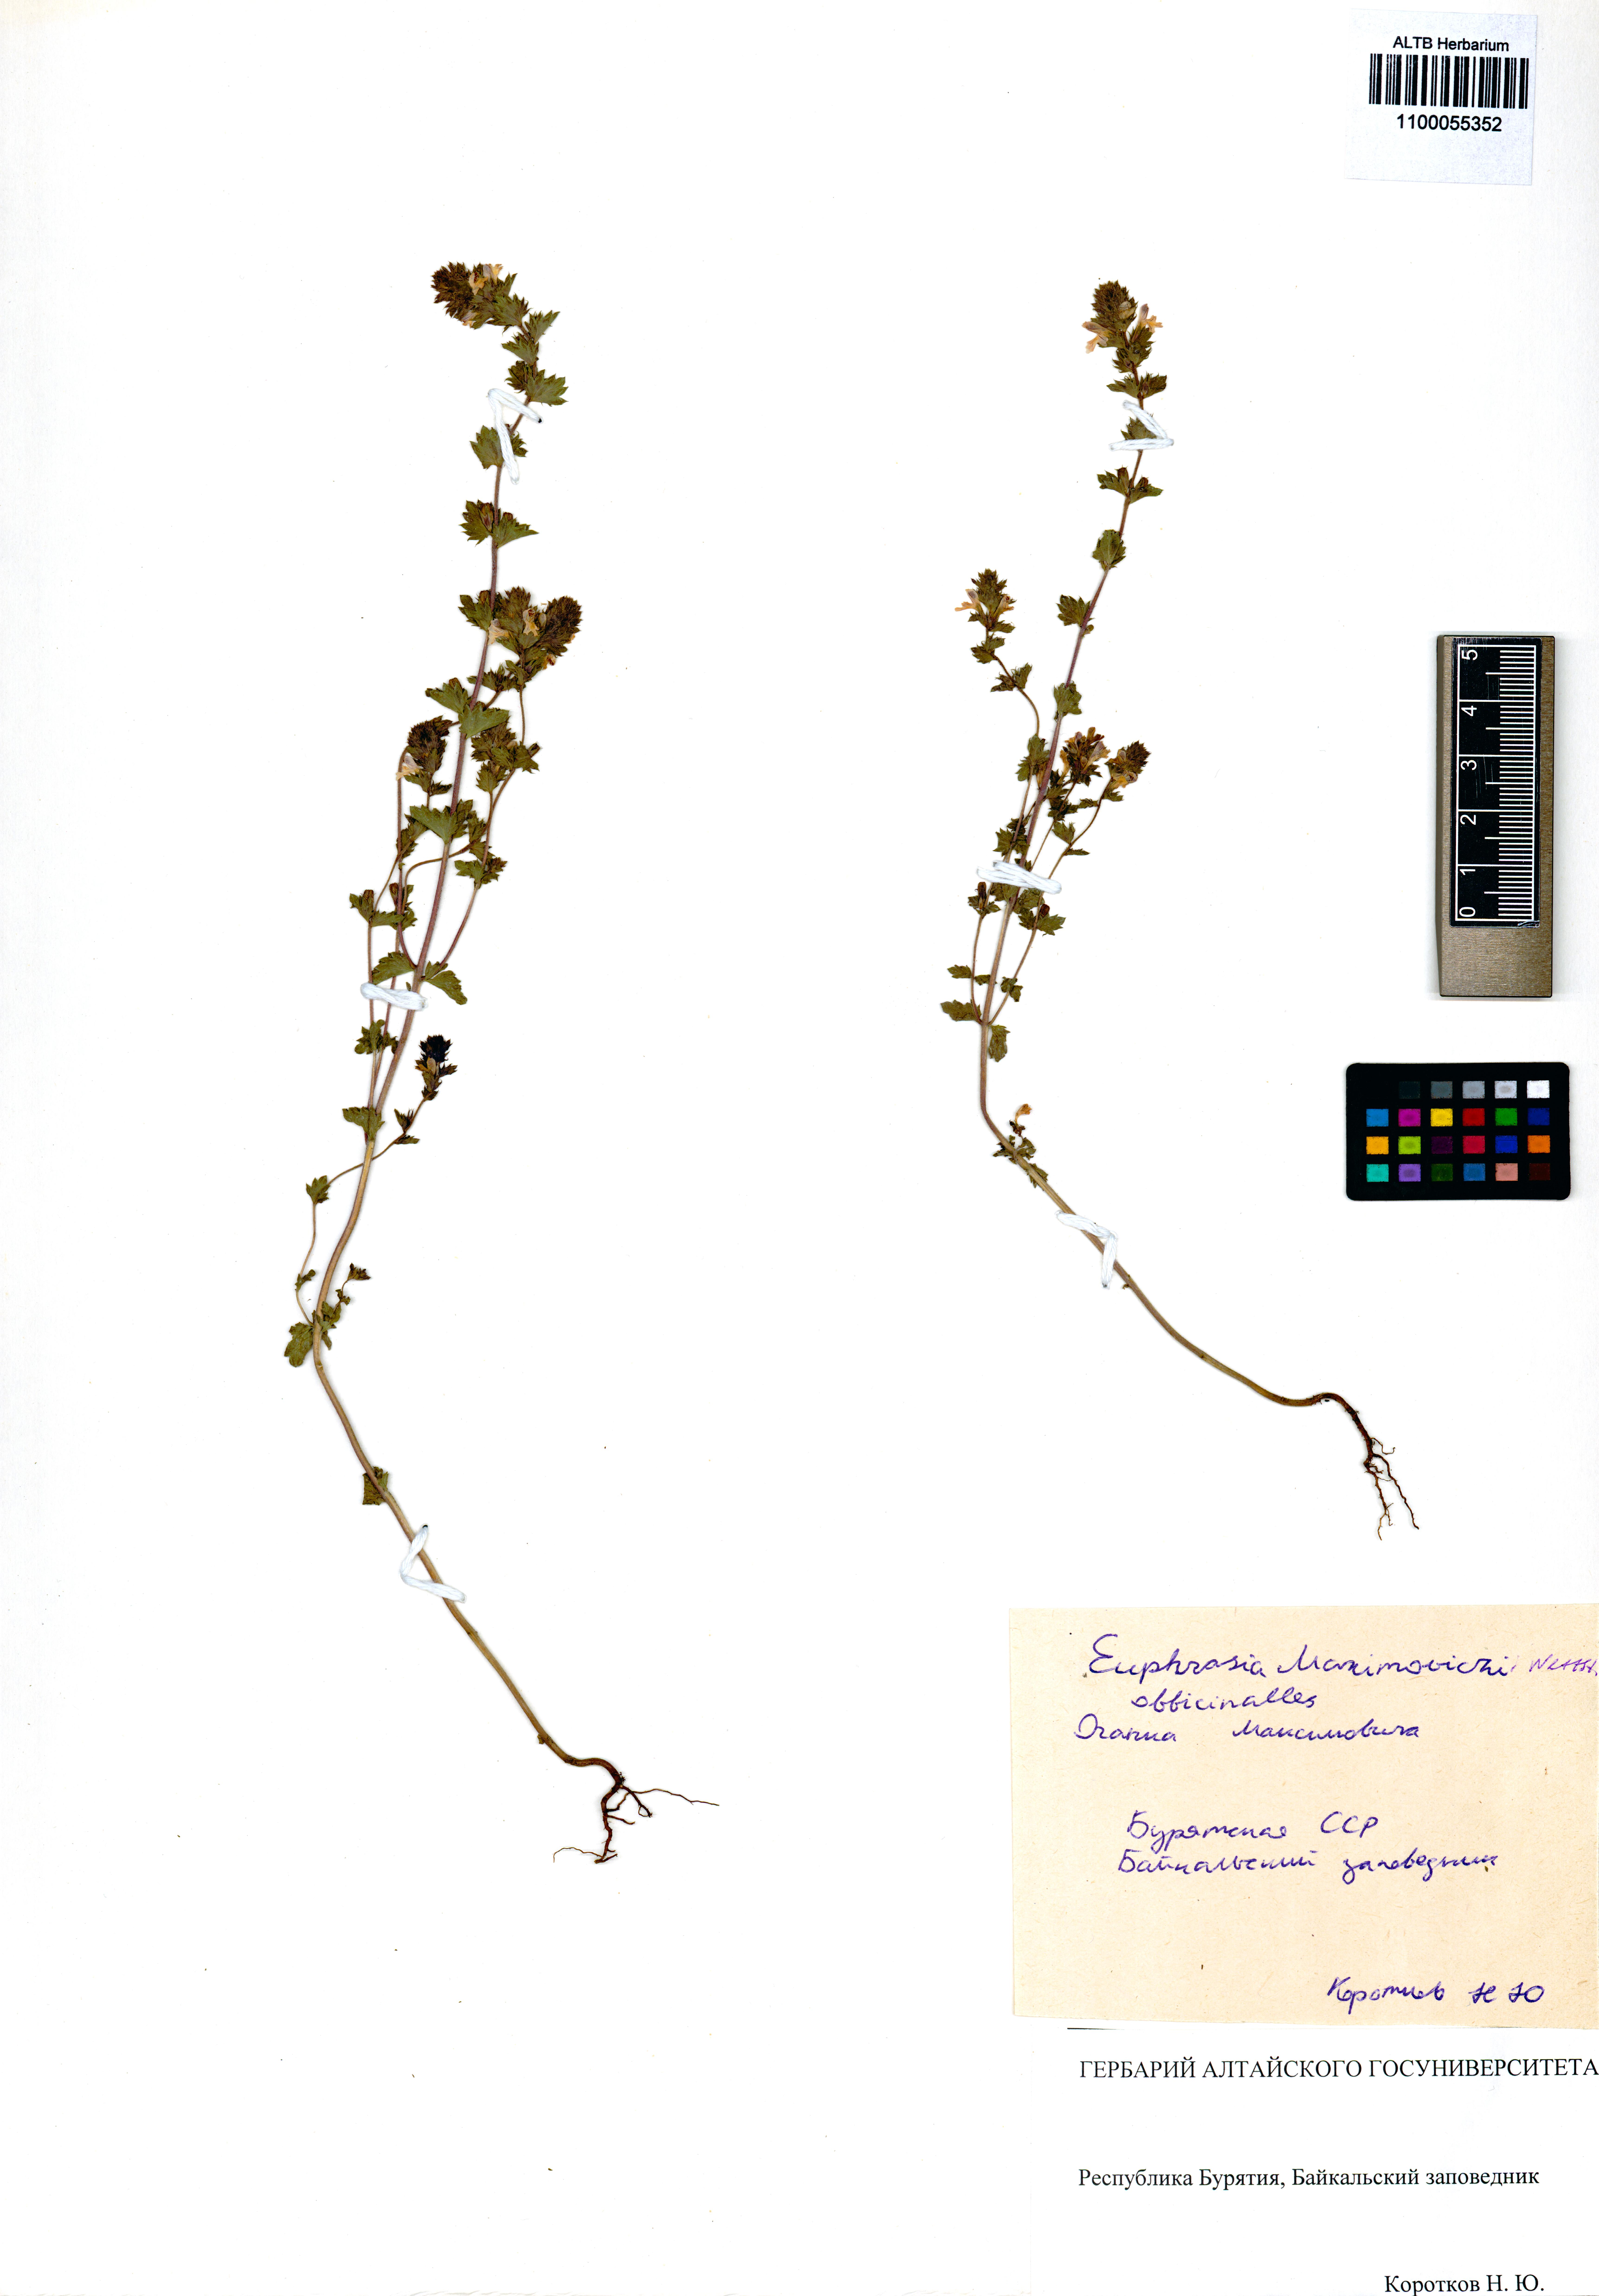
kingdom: Plantae
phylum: Tracheophyta
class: Magnoliopsida
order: Lamiales
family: Orobanchaceae
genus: Euphrasia
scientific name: Euphrasia maximowiczii
